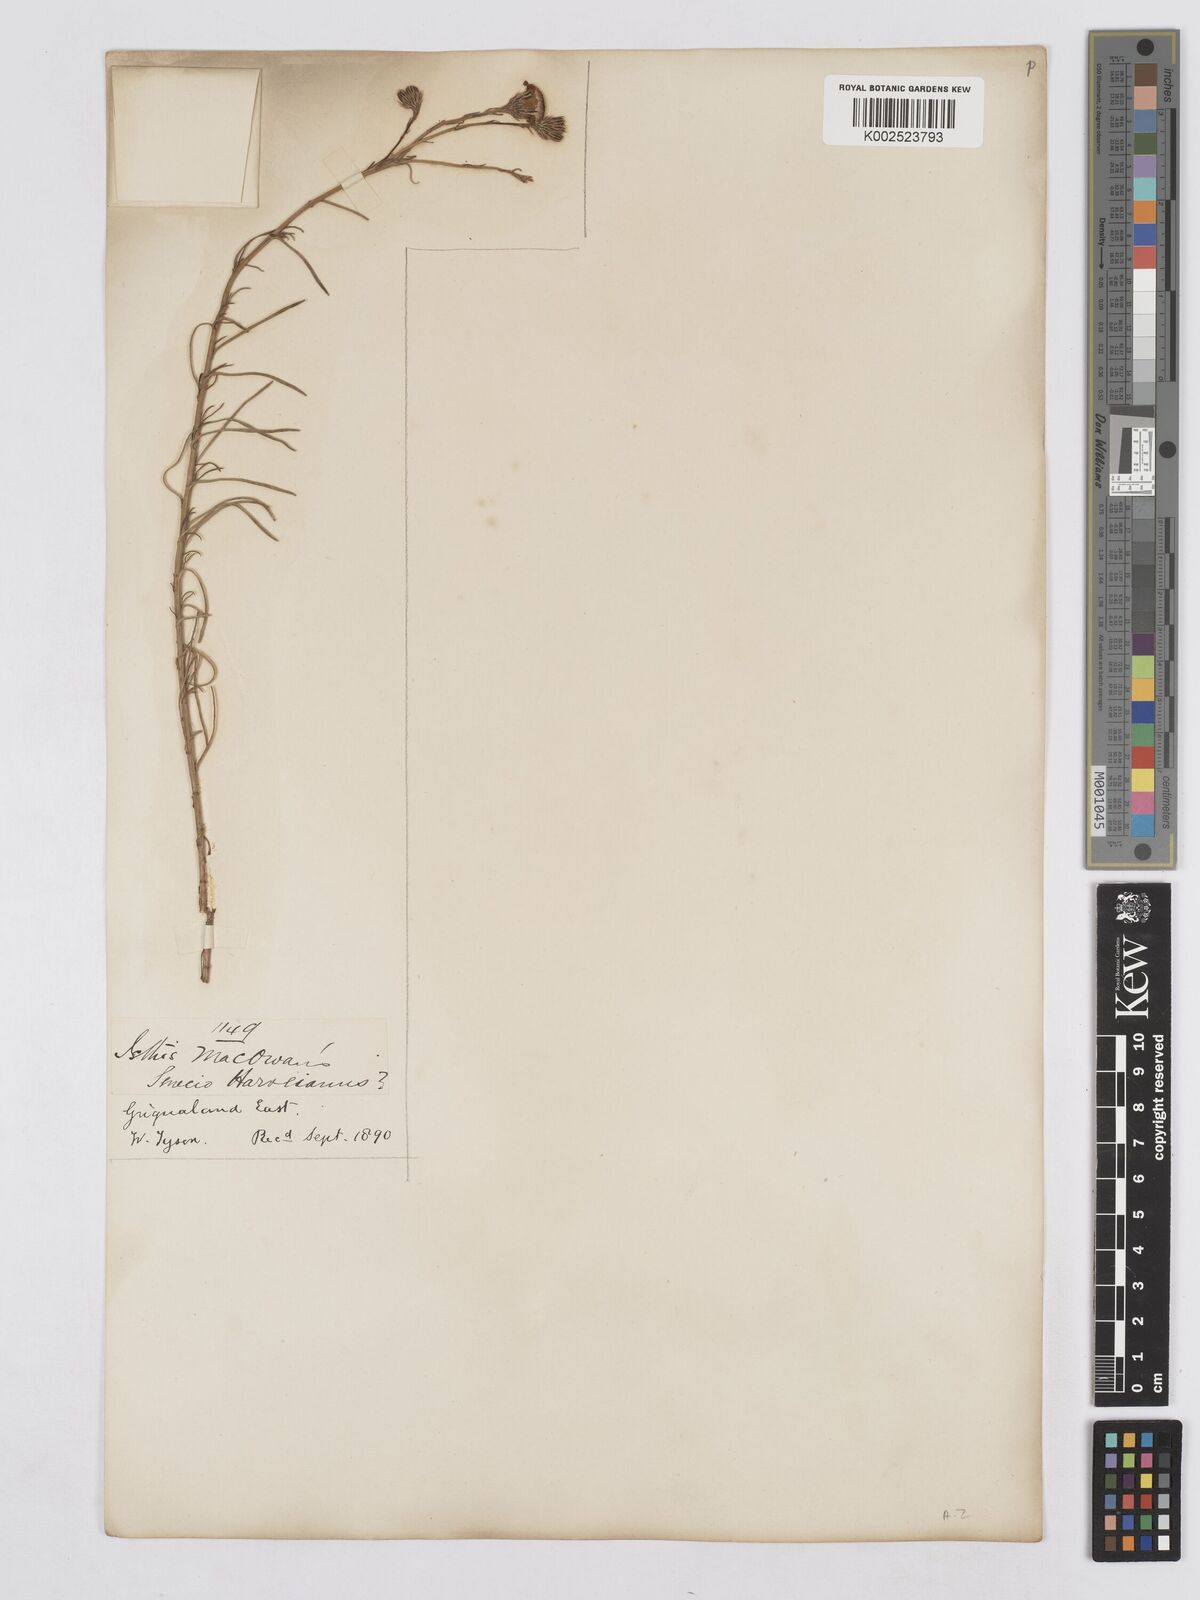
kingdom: Plantae
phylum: Tracheophyta
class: Magnoliopsida
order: Asterales
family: Asteraceae
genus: Senecio
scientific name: Senecio harveyanus
